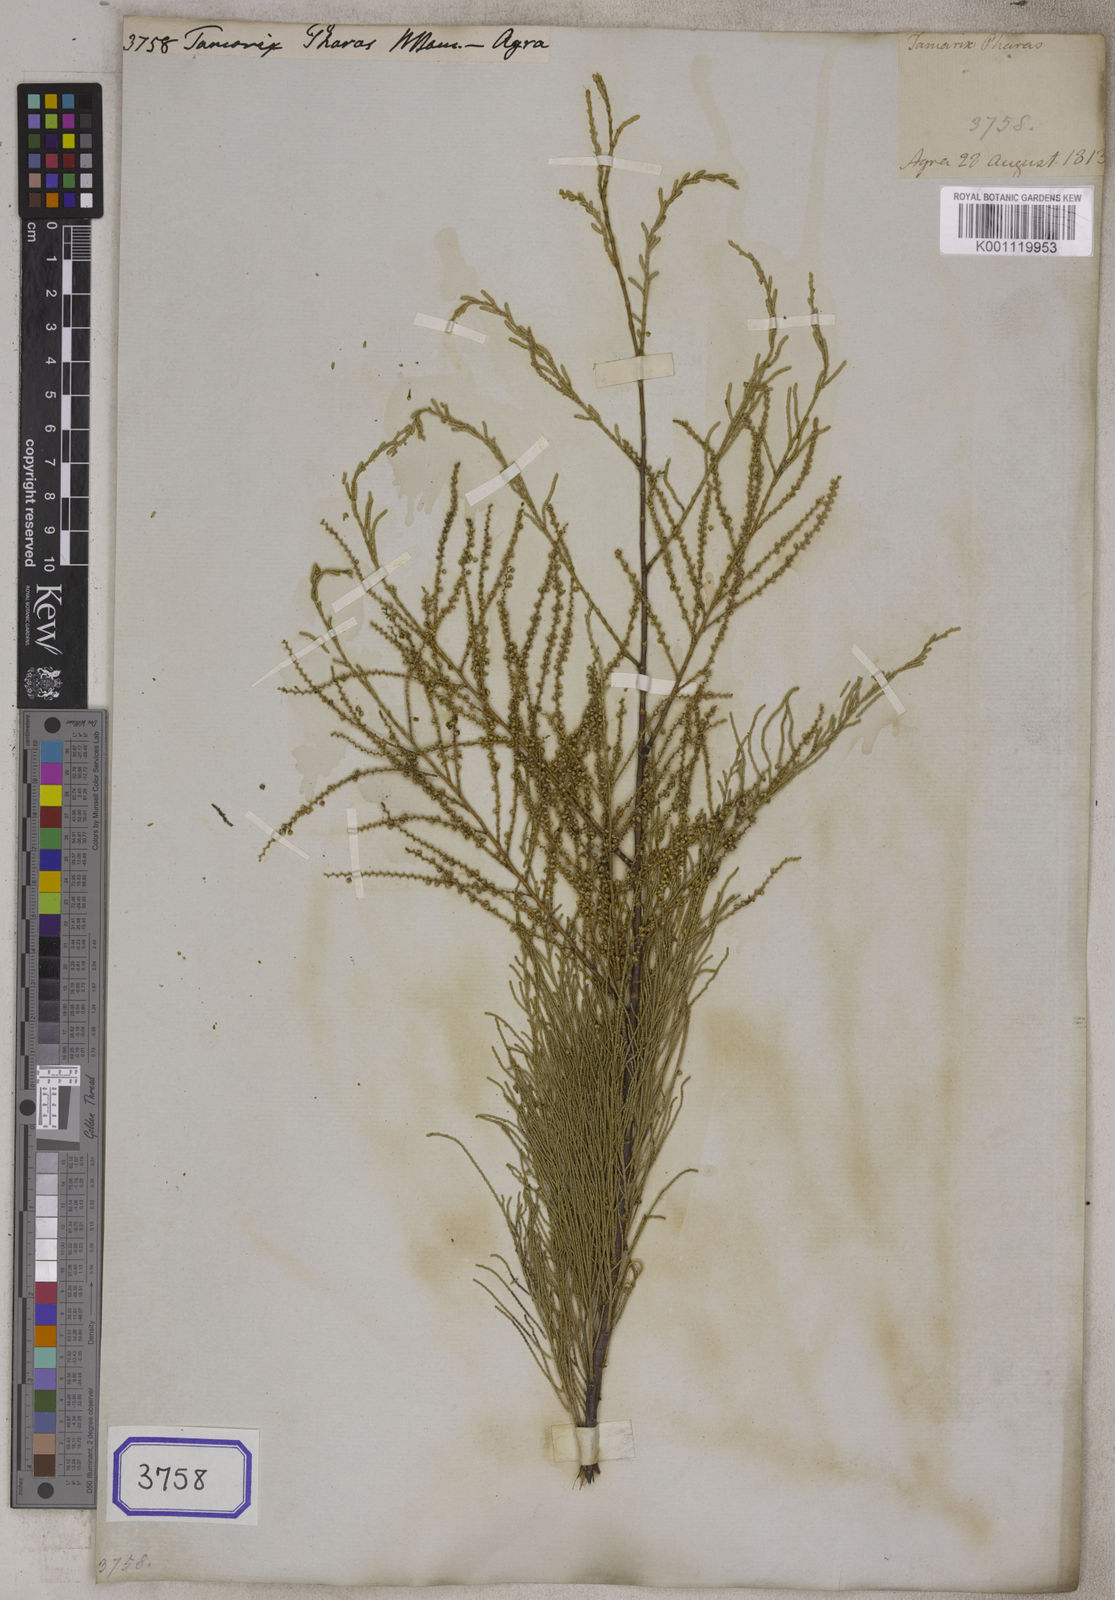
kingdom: Plantae
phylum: Tracheophyta
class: Magnoliopsida
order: Caryophyllales
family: Tamaricaceae
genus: Tamarix
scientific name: Tamarix aphylla
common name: Athel tamarisk
